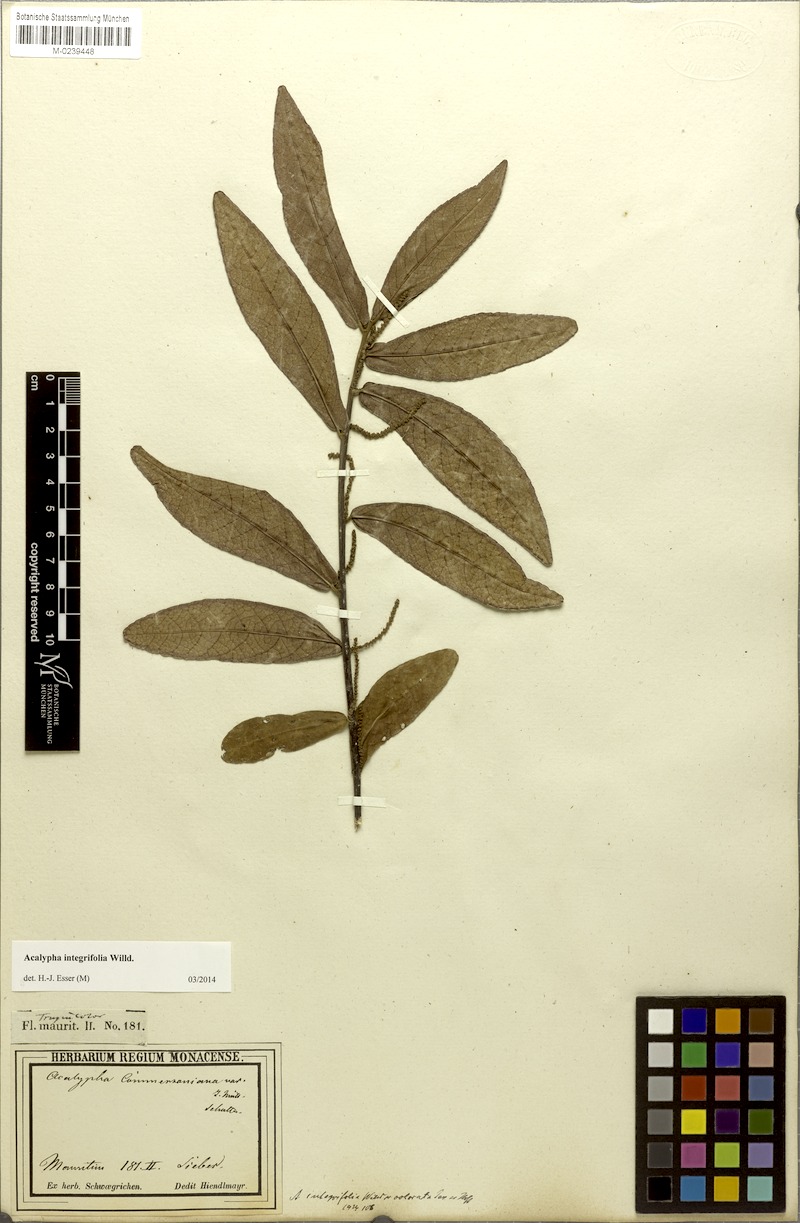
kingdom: Plantae
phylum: Tracheophyta
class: Magnoliopsida
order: Malpighiales
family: Euphorbiaceae
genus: Acalypha
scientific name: Acalypha integrifolia
